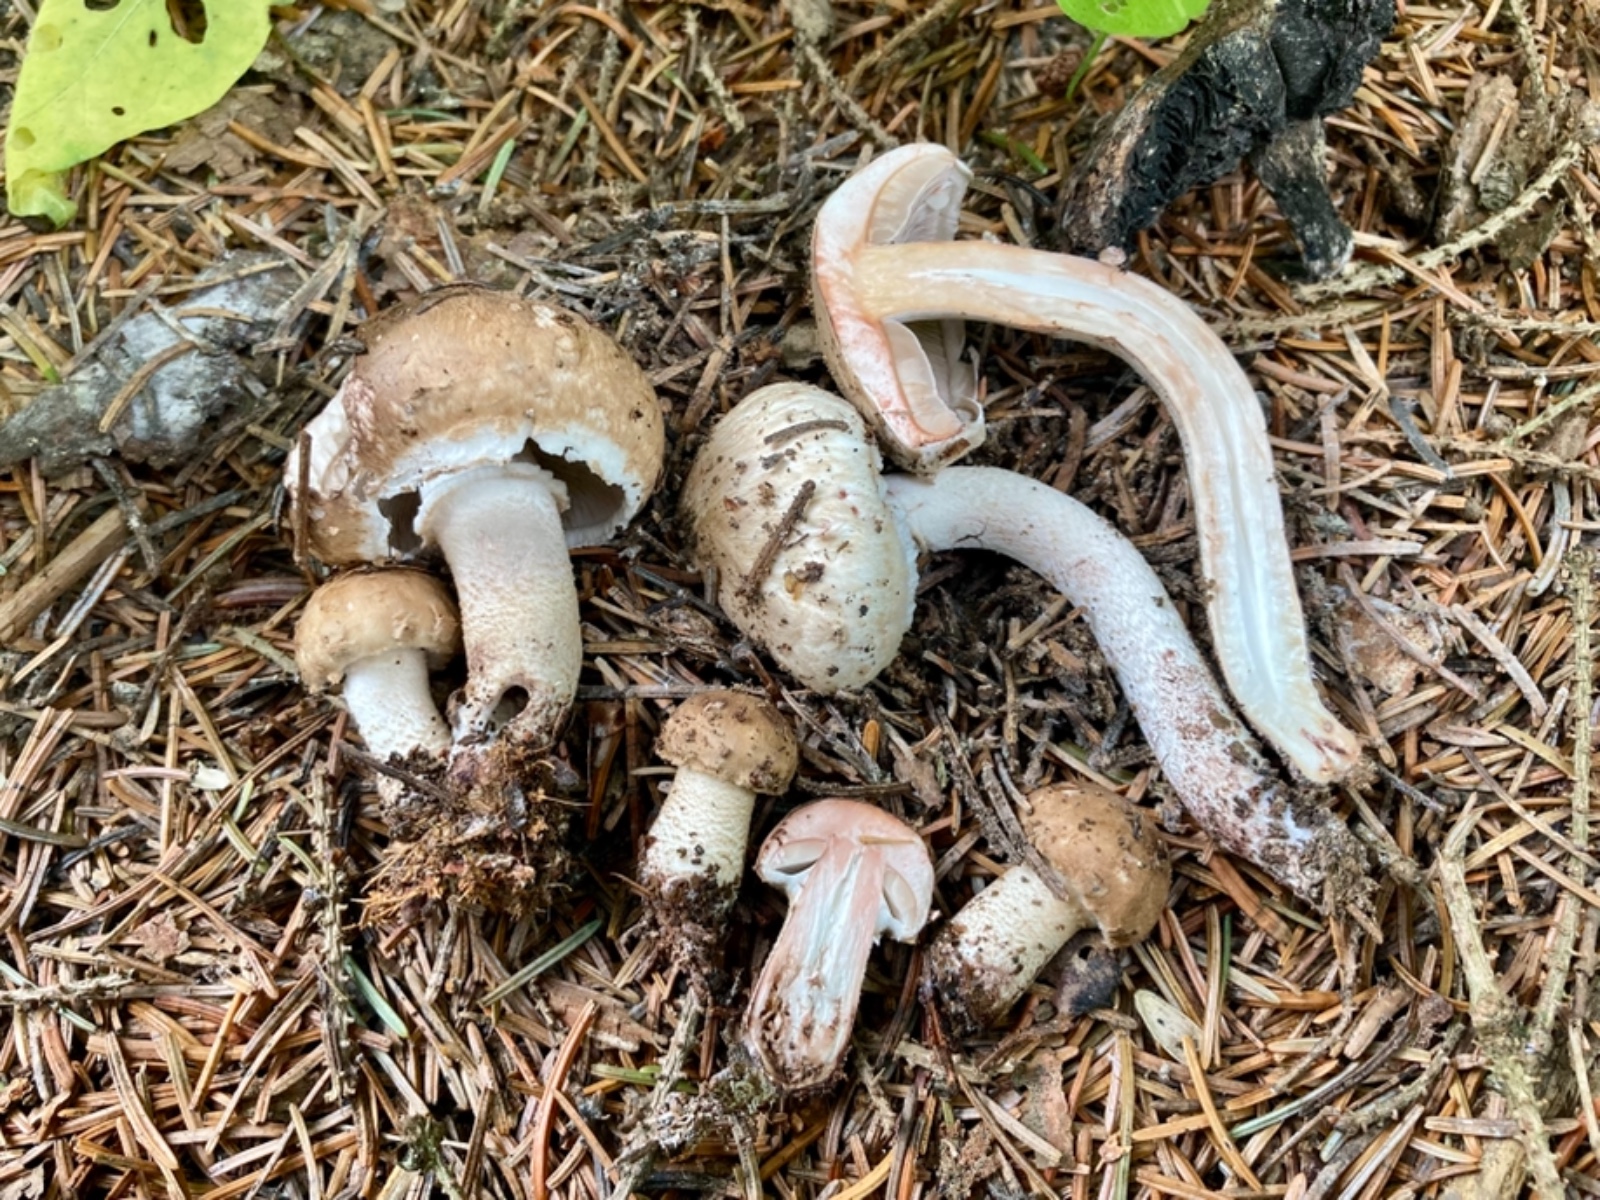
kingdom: Fungi
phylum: Basidiomycota
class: Agaricomycetes
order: Agaricales
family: Agaricaceae
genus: Agaricus
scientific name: Agaricus sylvaticus
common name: lille blod-champignon
